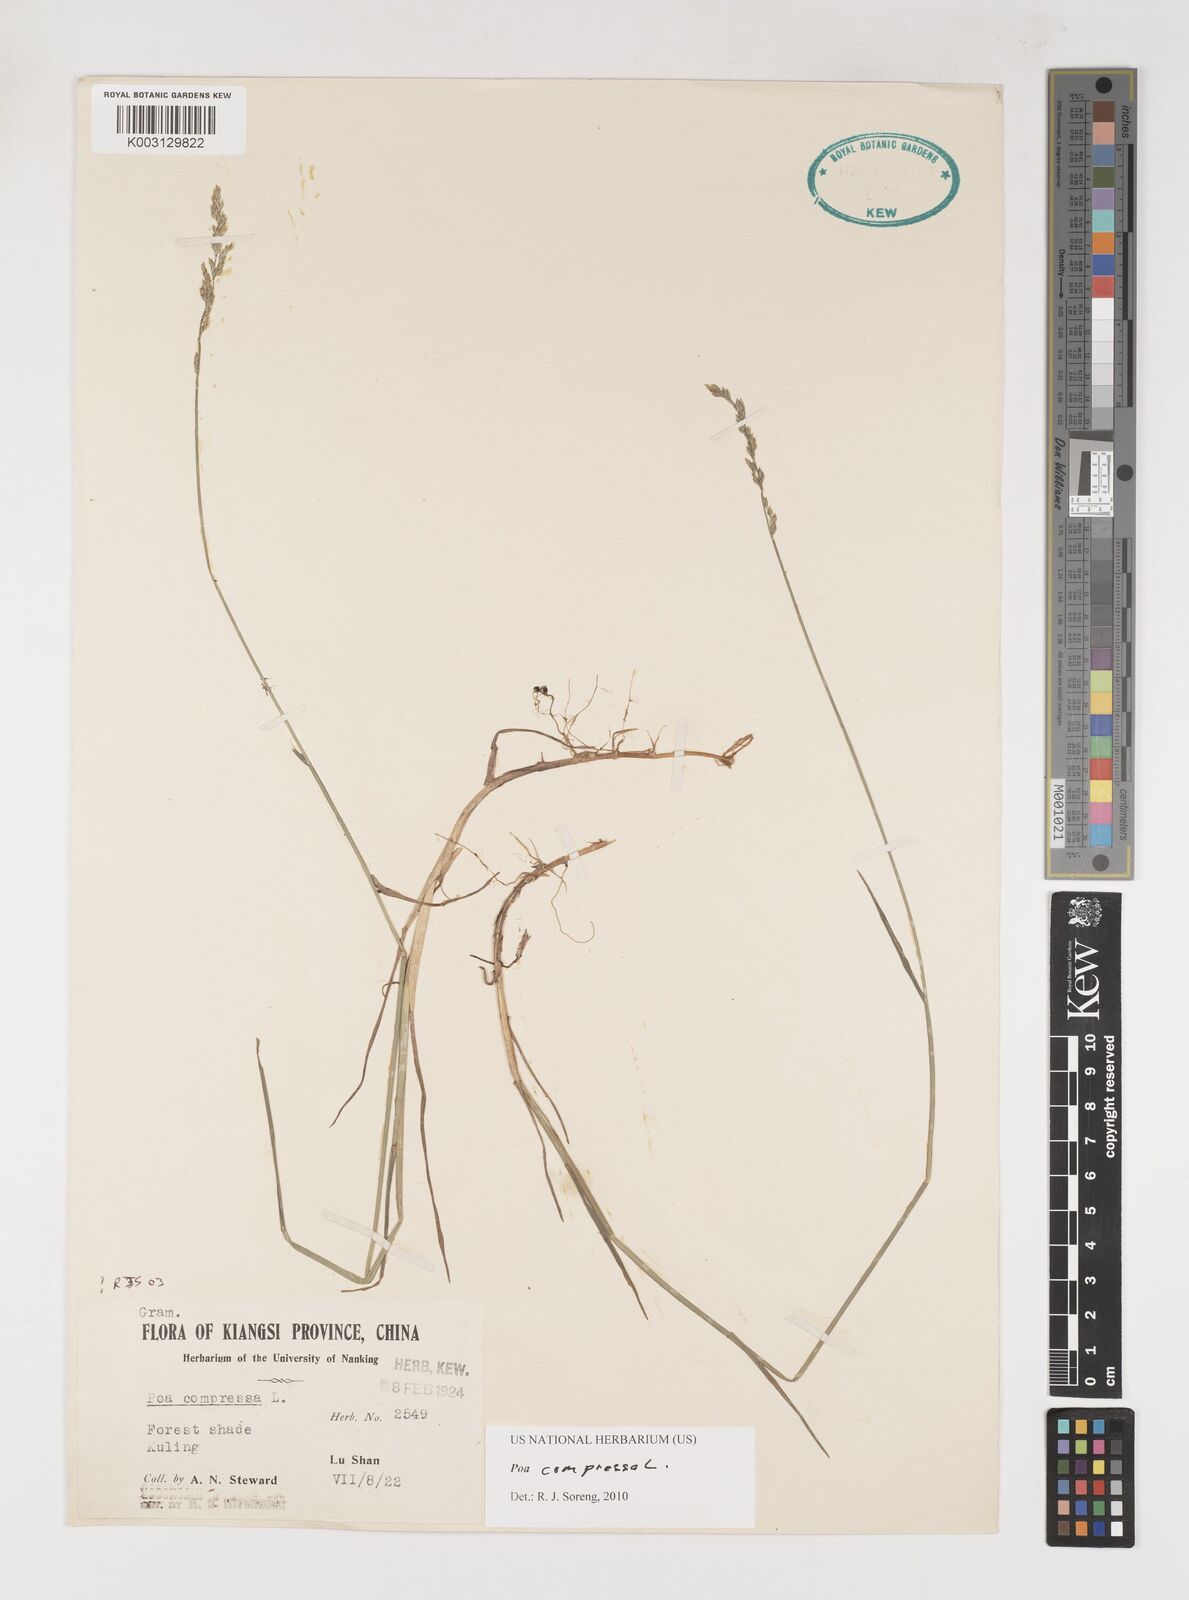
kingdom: Plantae
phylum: Tracheophyta
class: Liliopsida
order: Poales
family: Poaceae
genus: Poa
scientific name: Poa compressa
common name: Canada bluegrass
